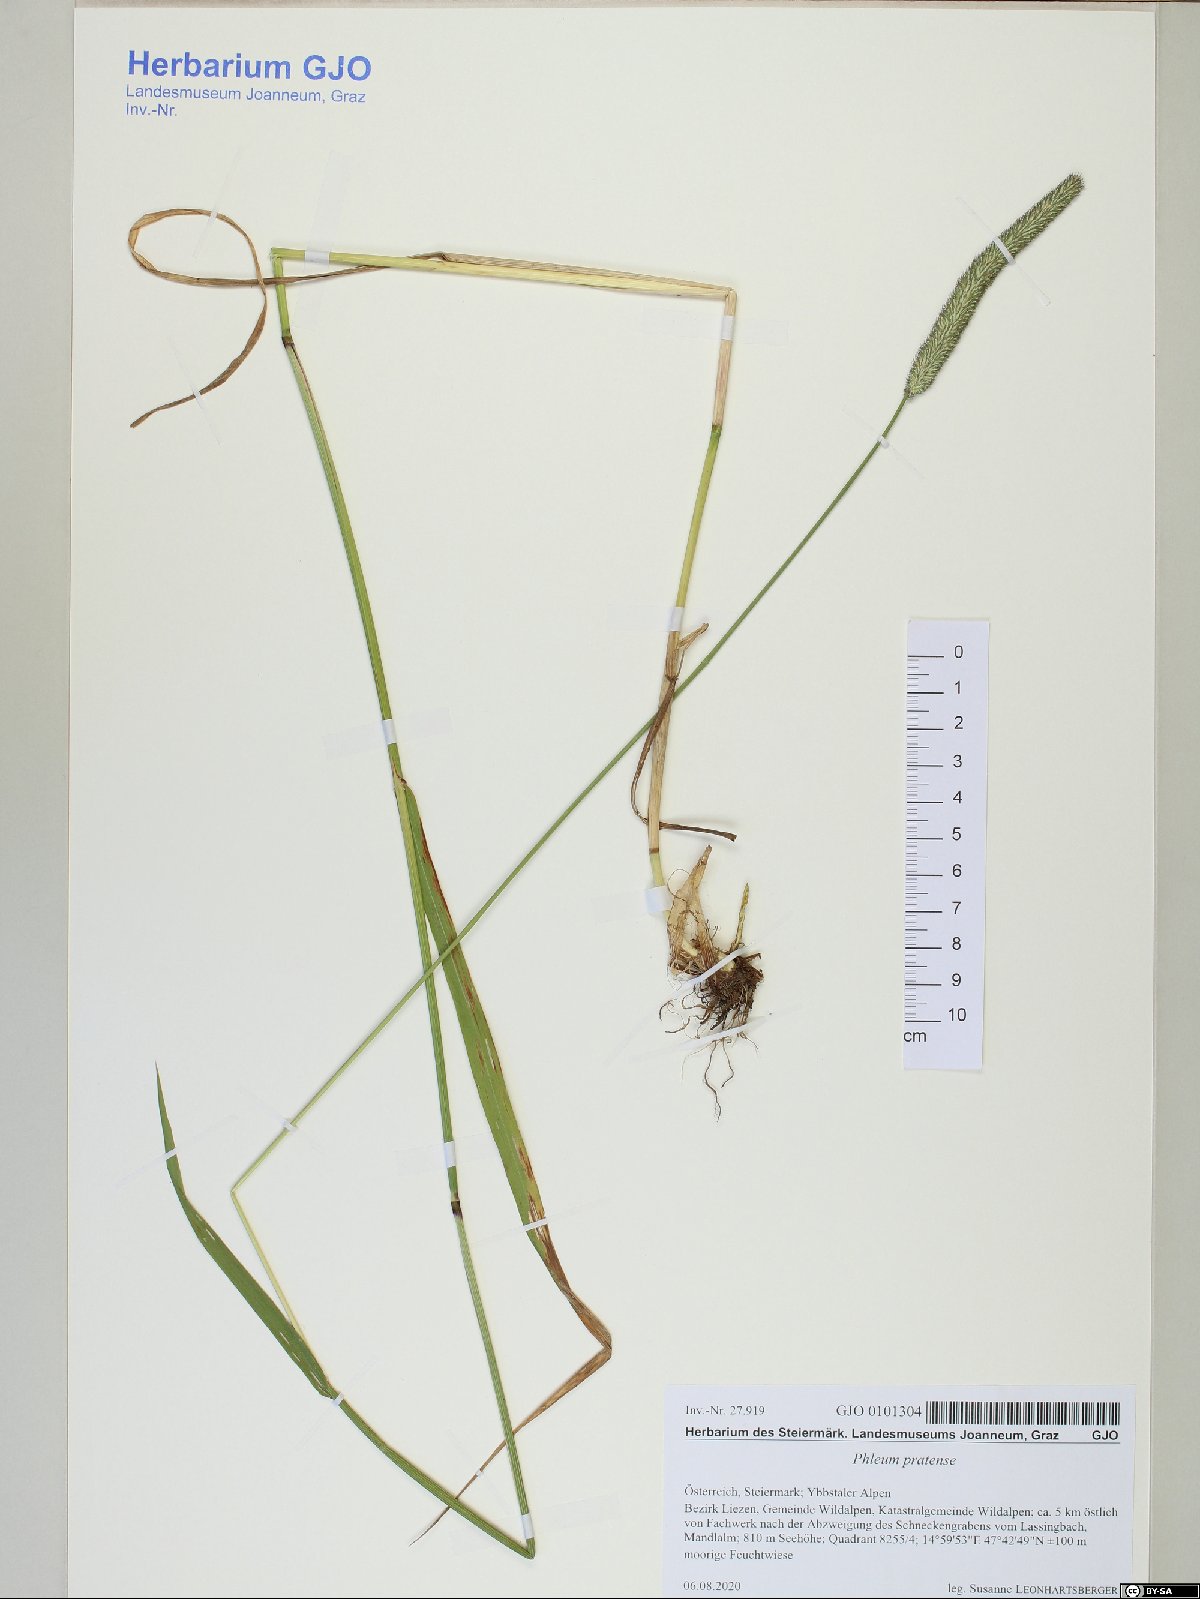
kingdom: Plantae
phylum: Tracheophyta
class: Liliopsida
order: Poales
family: Poaceae
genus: Phleum
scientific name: Phleum pratense
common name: Timothy grass
